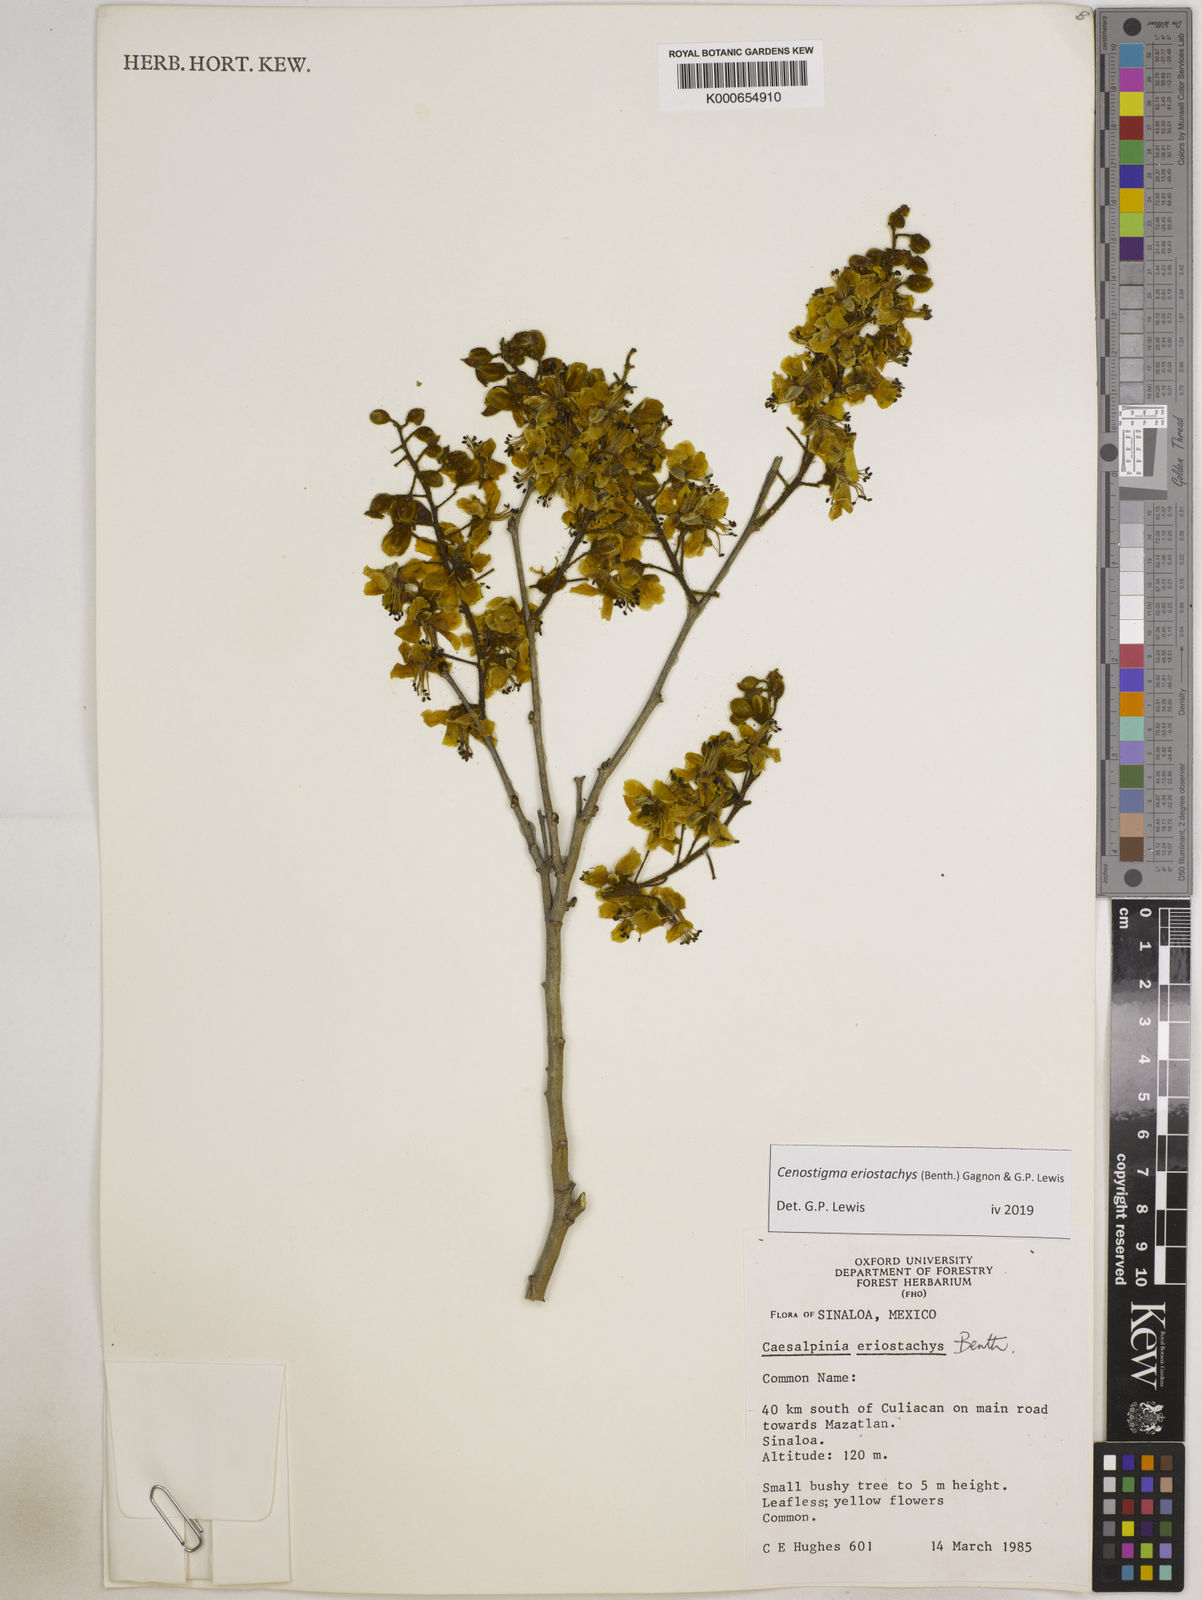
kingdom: Plantae
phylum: Tracheophyta
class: Magnoliopsida
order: Fabales
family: Fabaceae
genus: Cenostigma
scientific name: Cenostigma eriostachys
